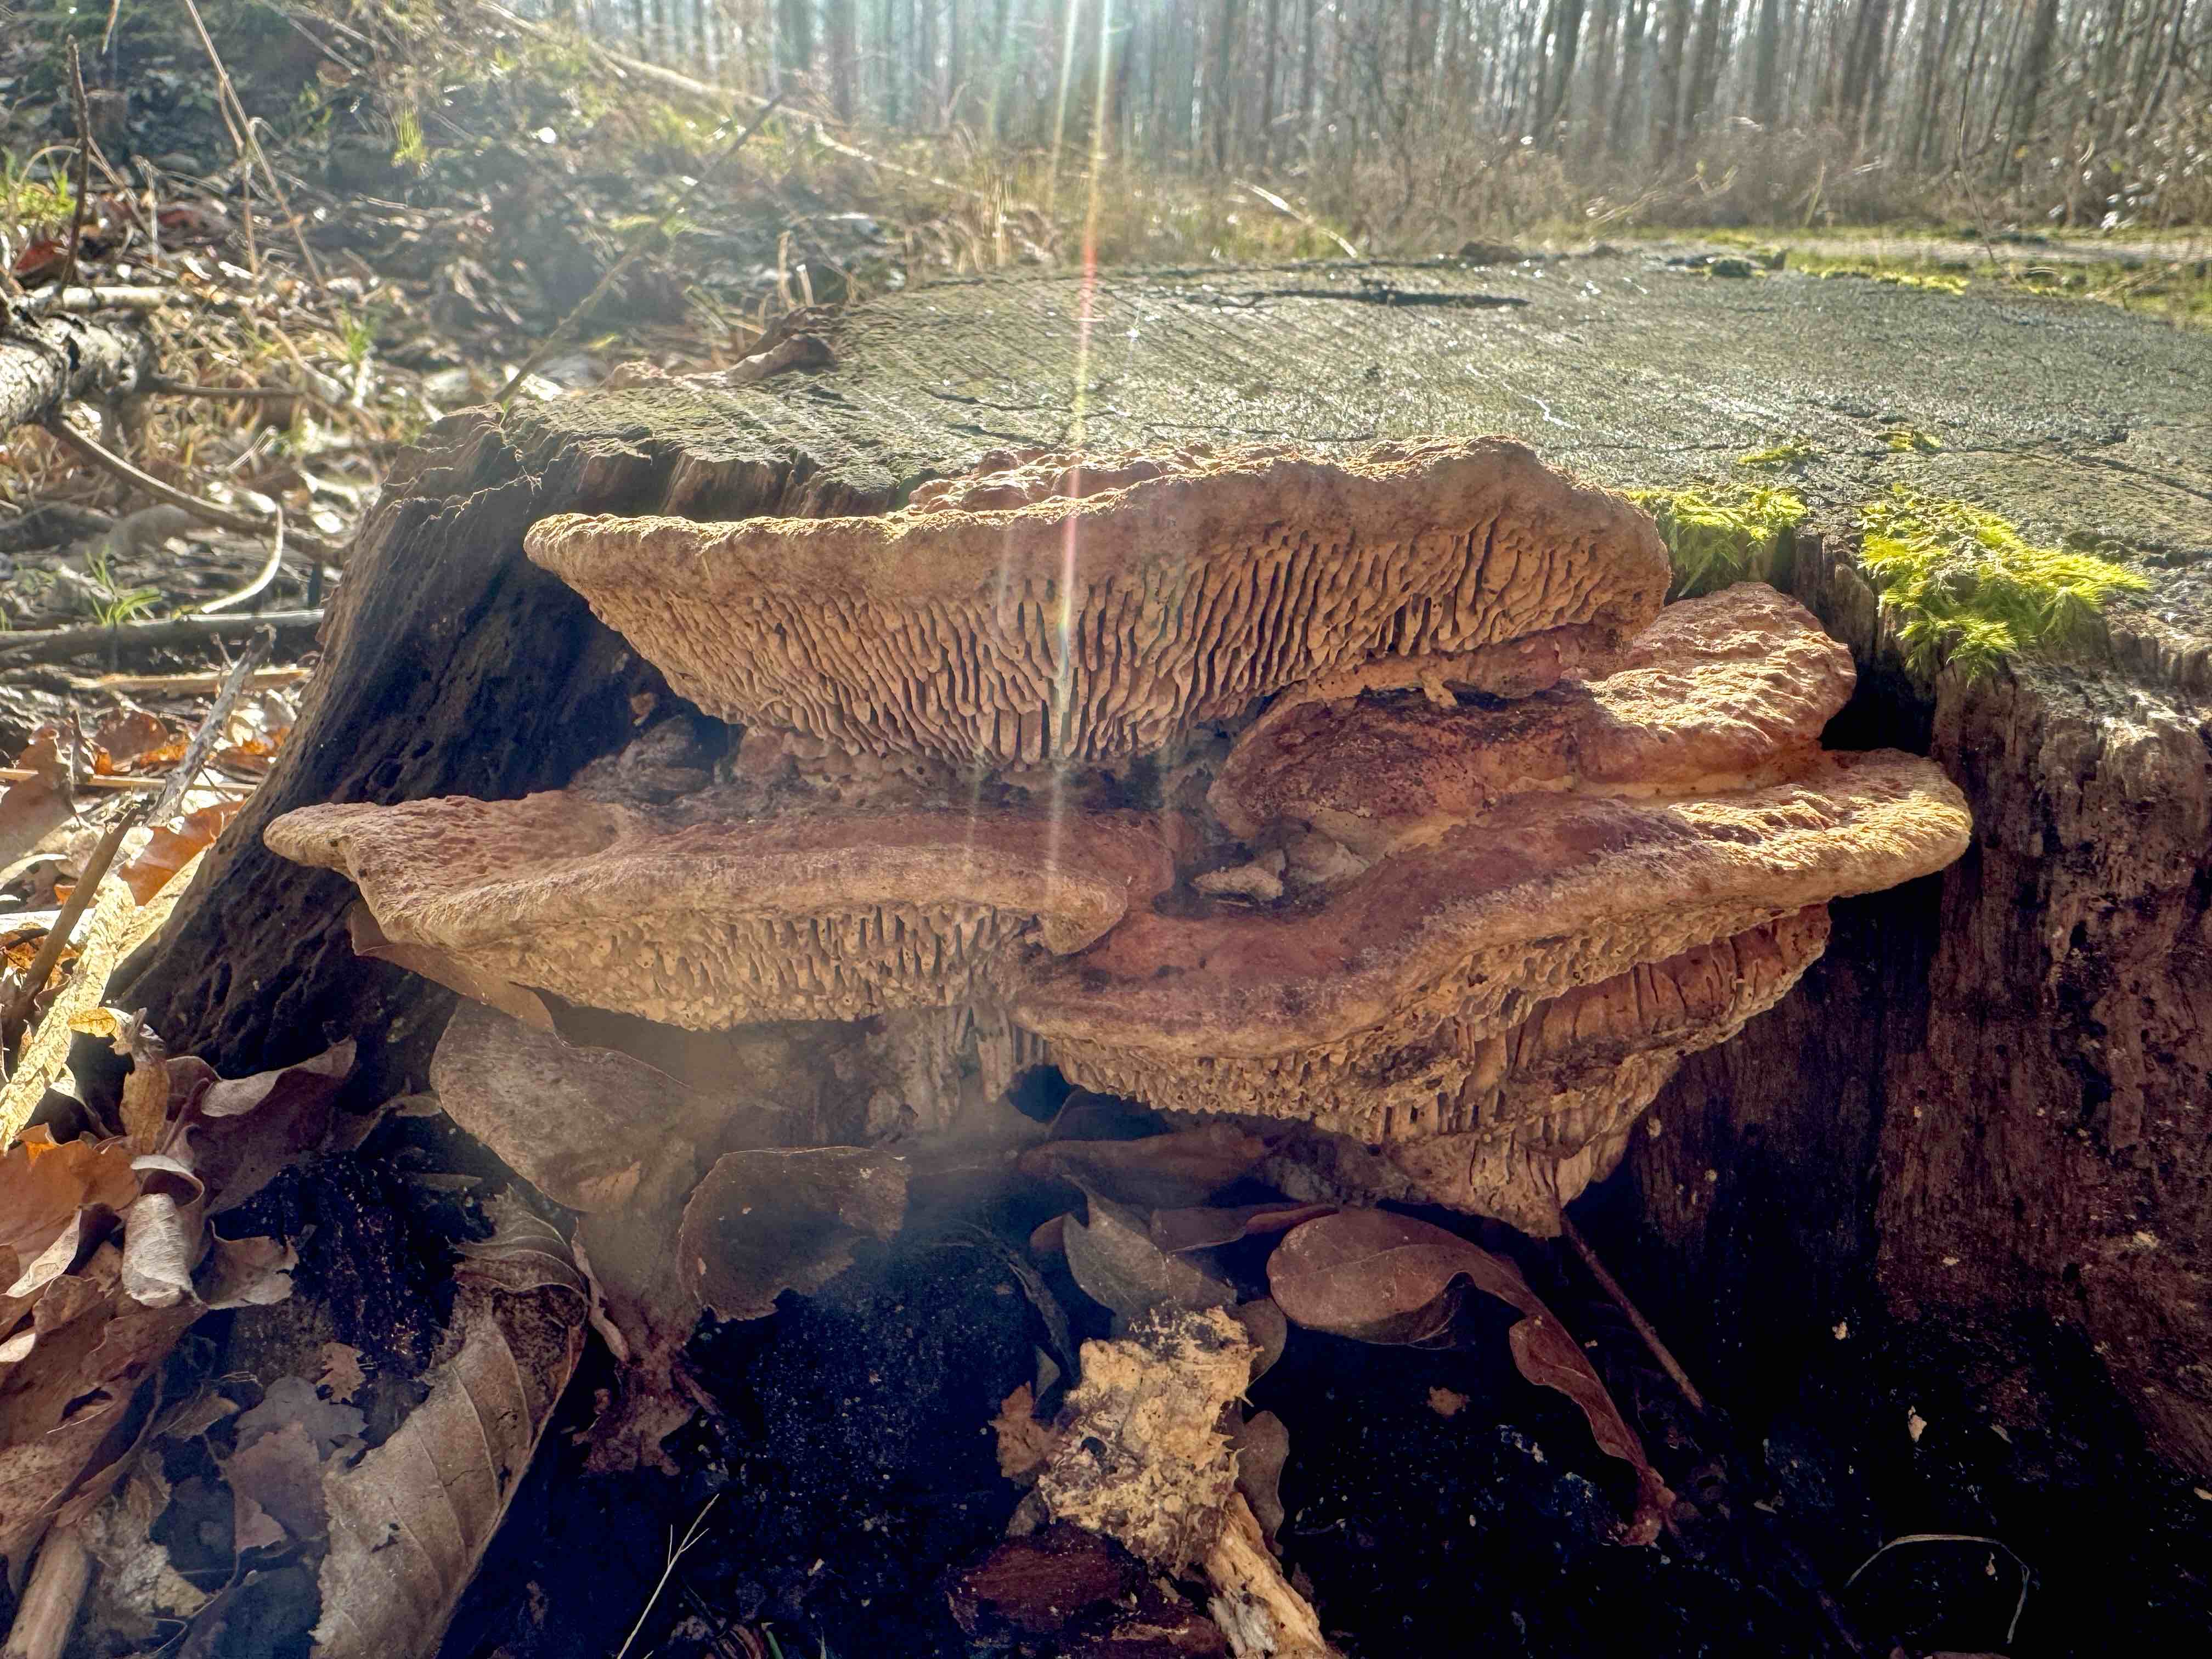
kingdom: Fungi
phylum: Basidiomycota
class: Agaricomycetes
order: Polyporales
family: Fomitopsidaceae
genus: Daedalea
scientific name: Daedalea quercina
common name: ege-labyrintsvamp
